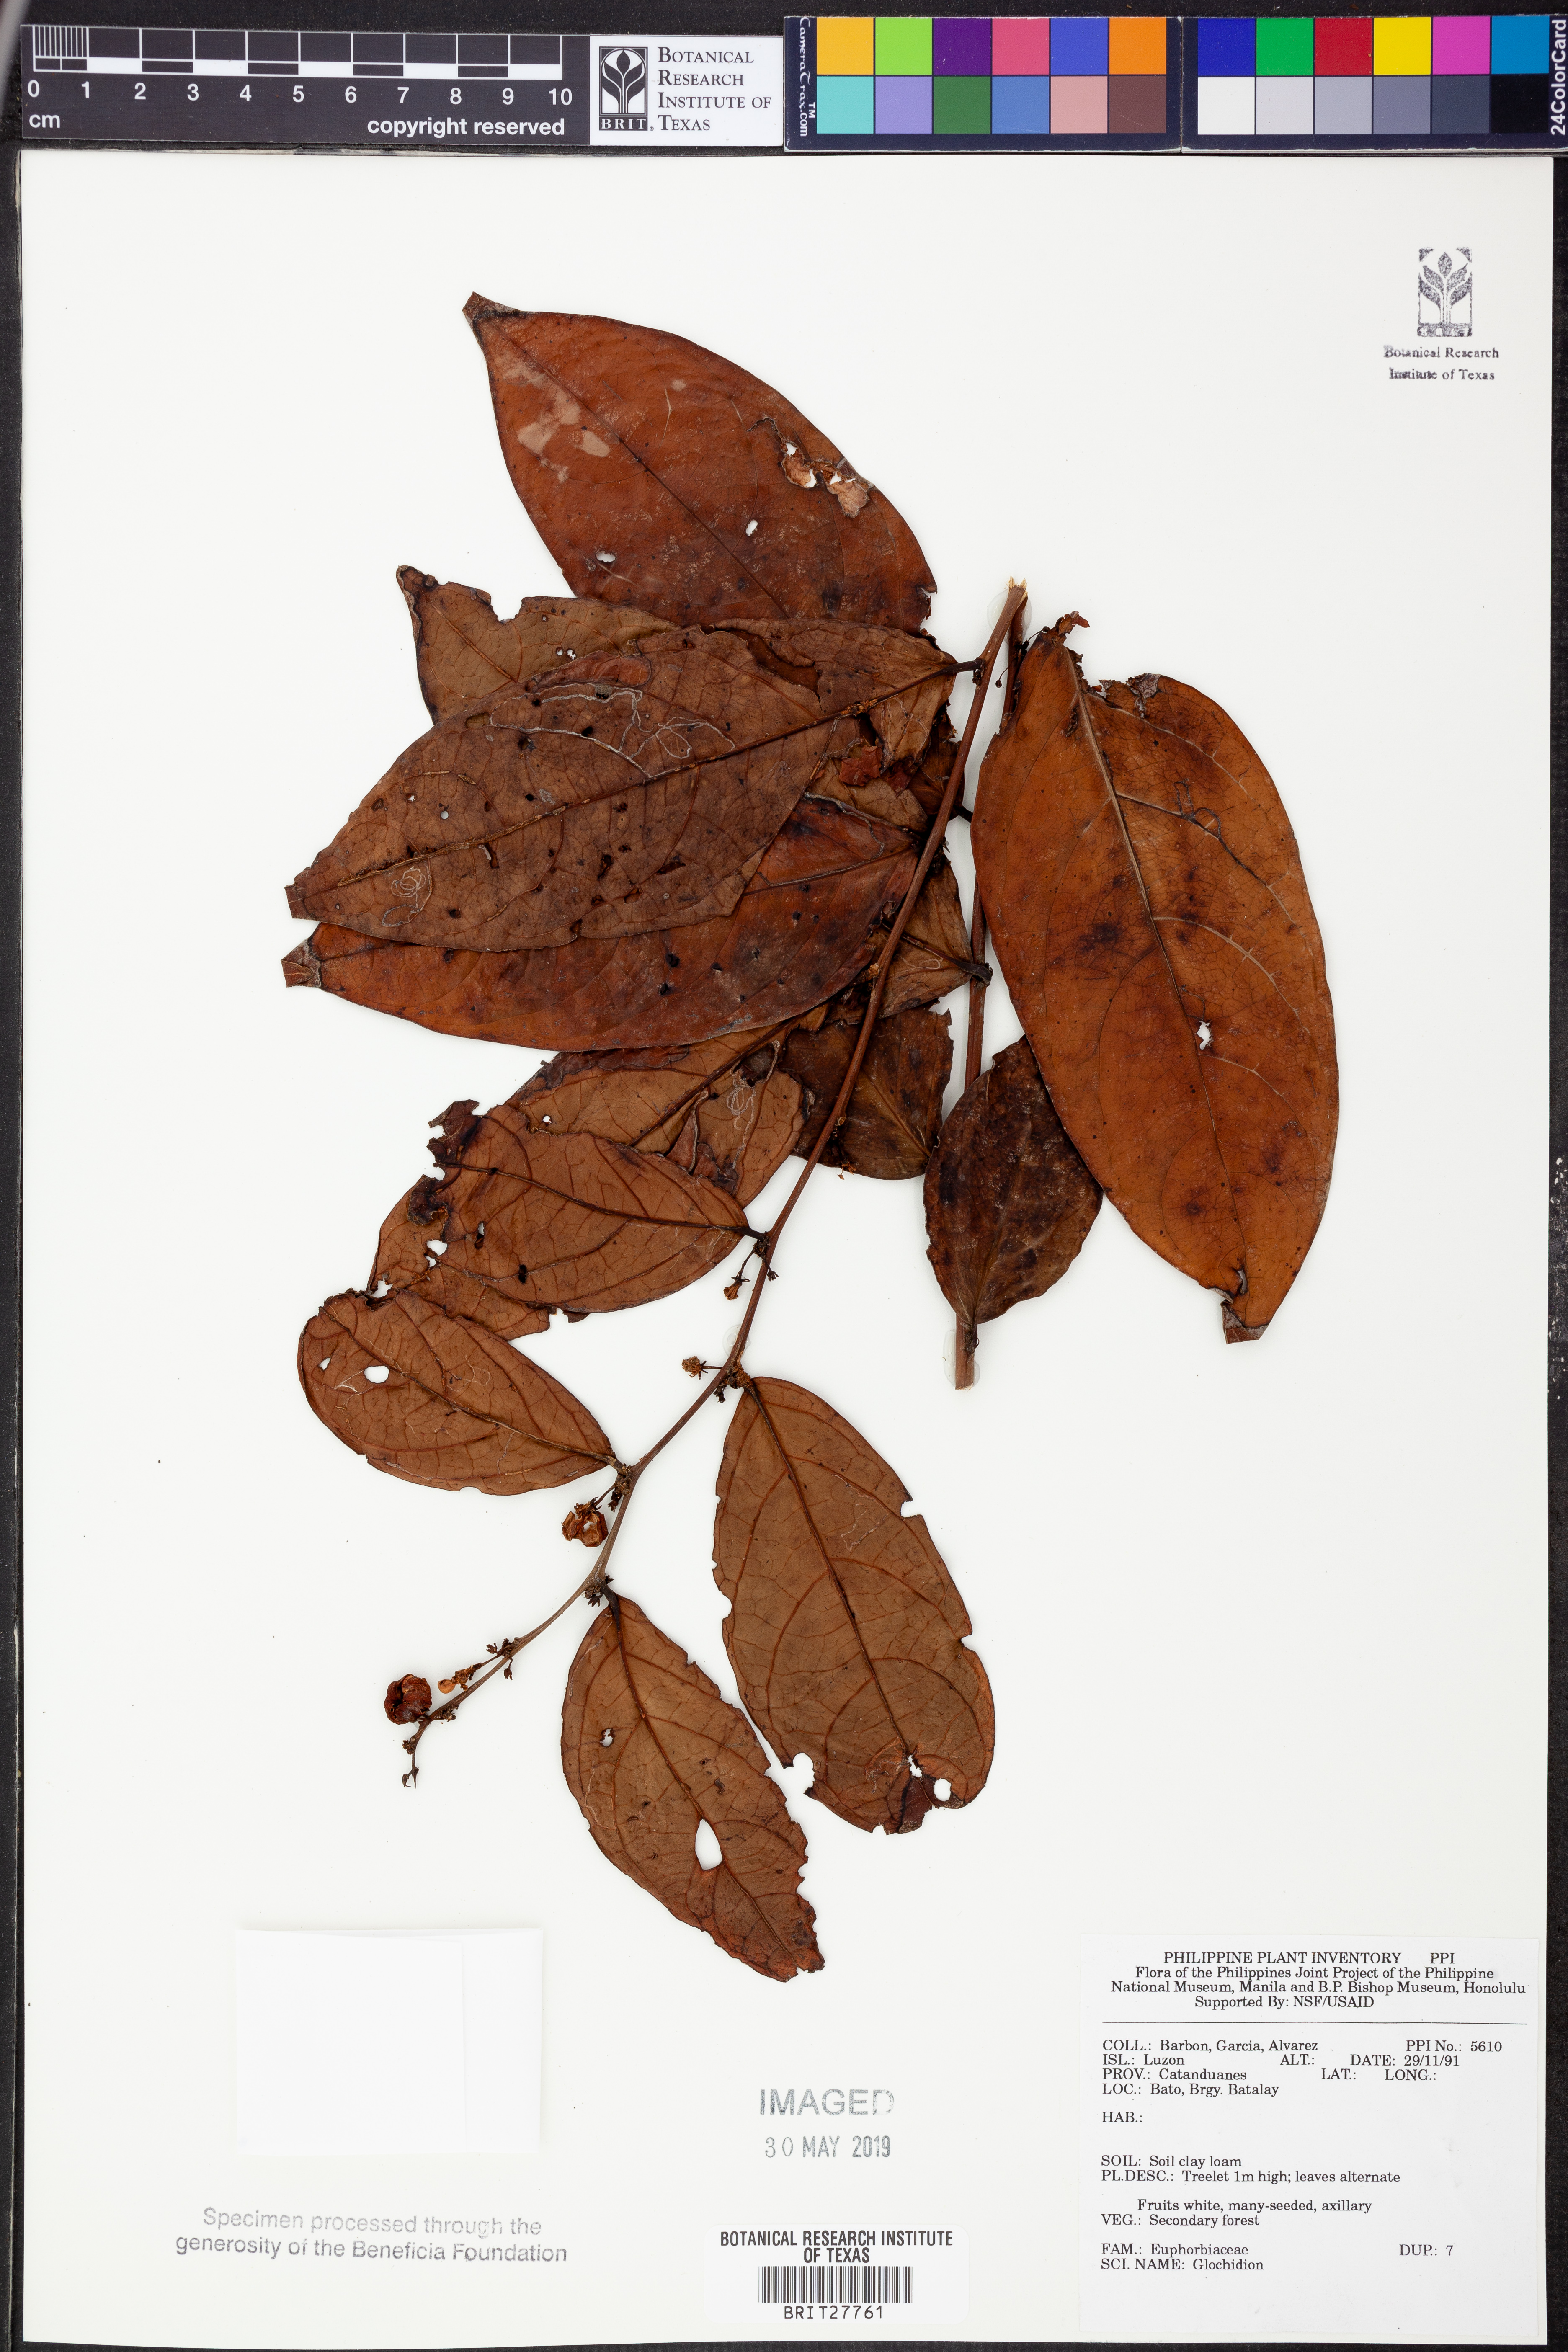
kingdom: Plantae
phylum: Tracheophyta
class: Magnoliopsida
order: Malpighiales
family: Phyllanthaceae
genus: Glochidion
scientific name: Glochidion
